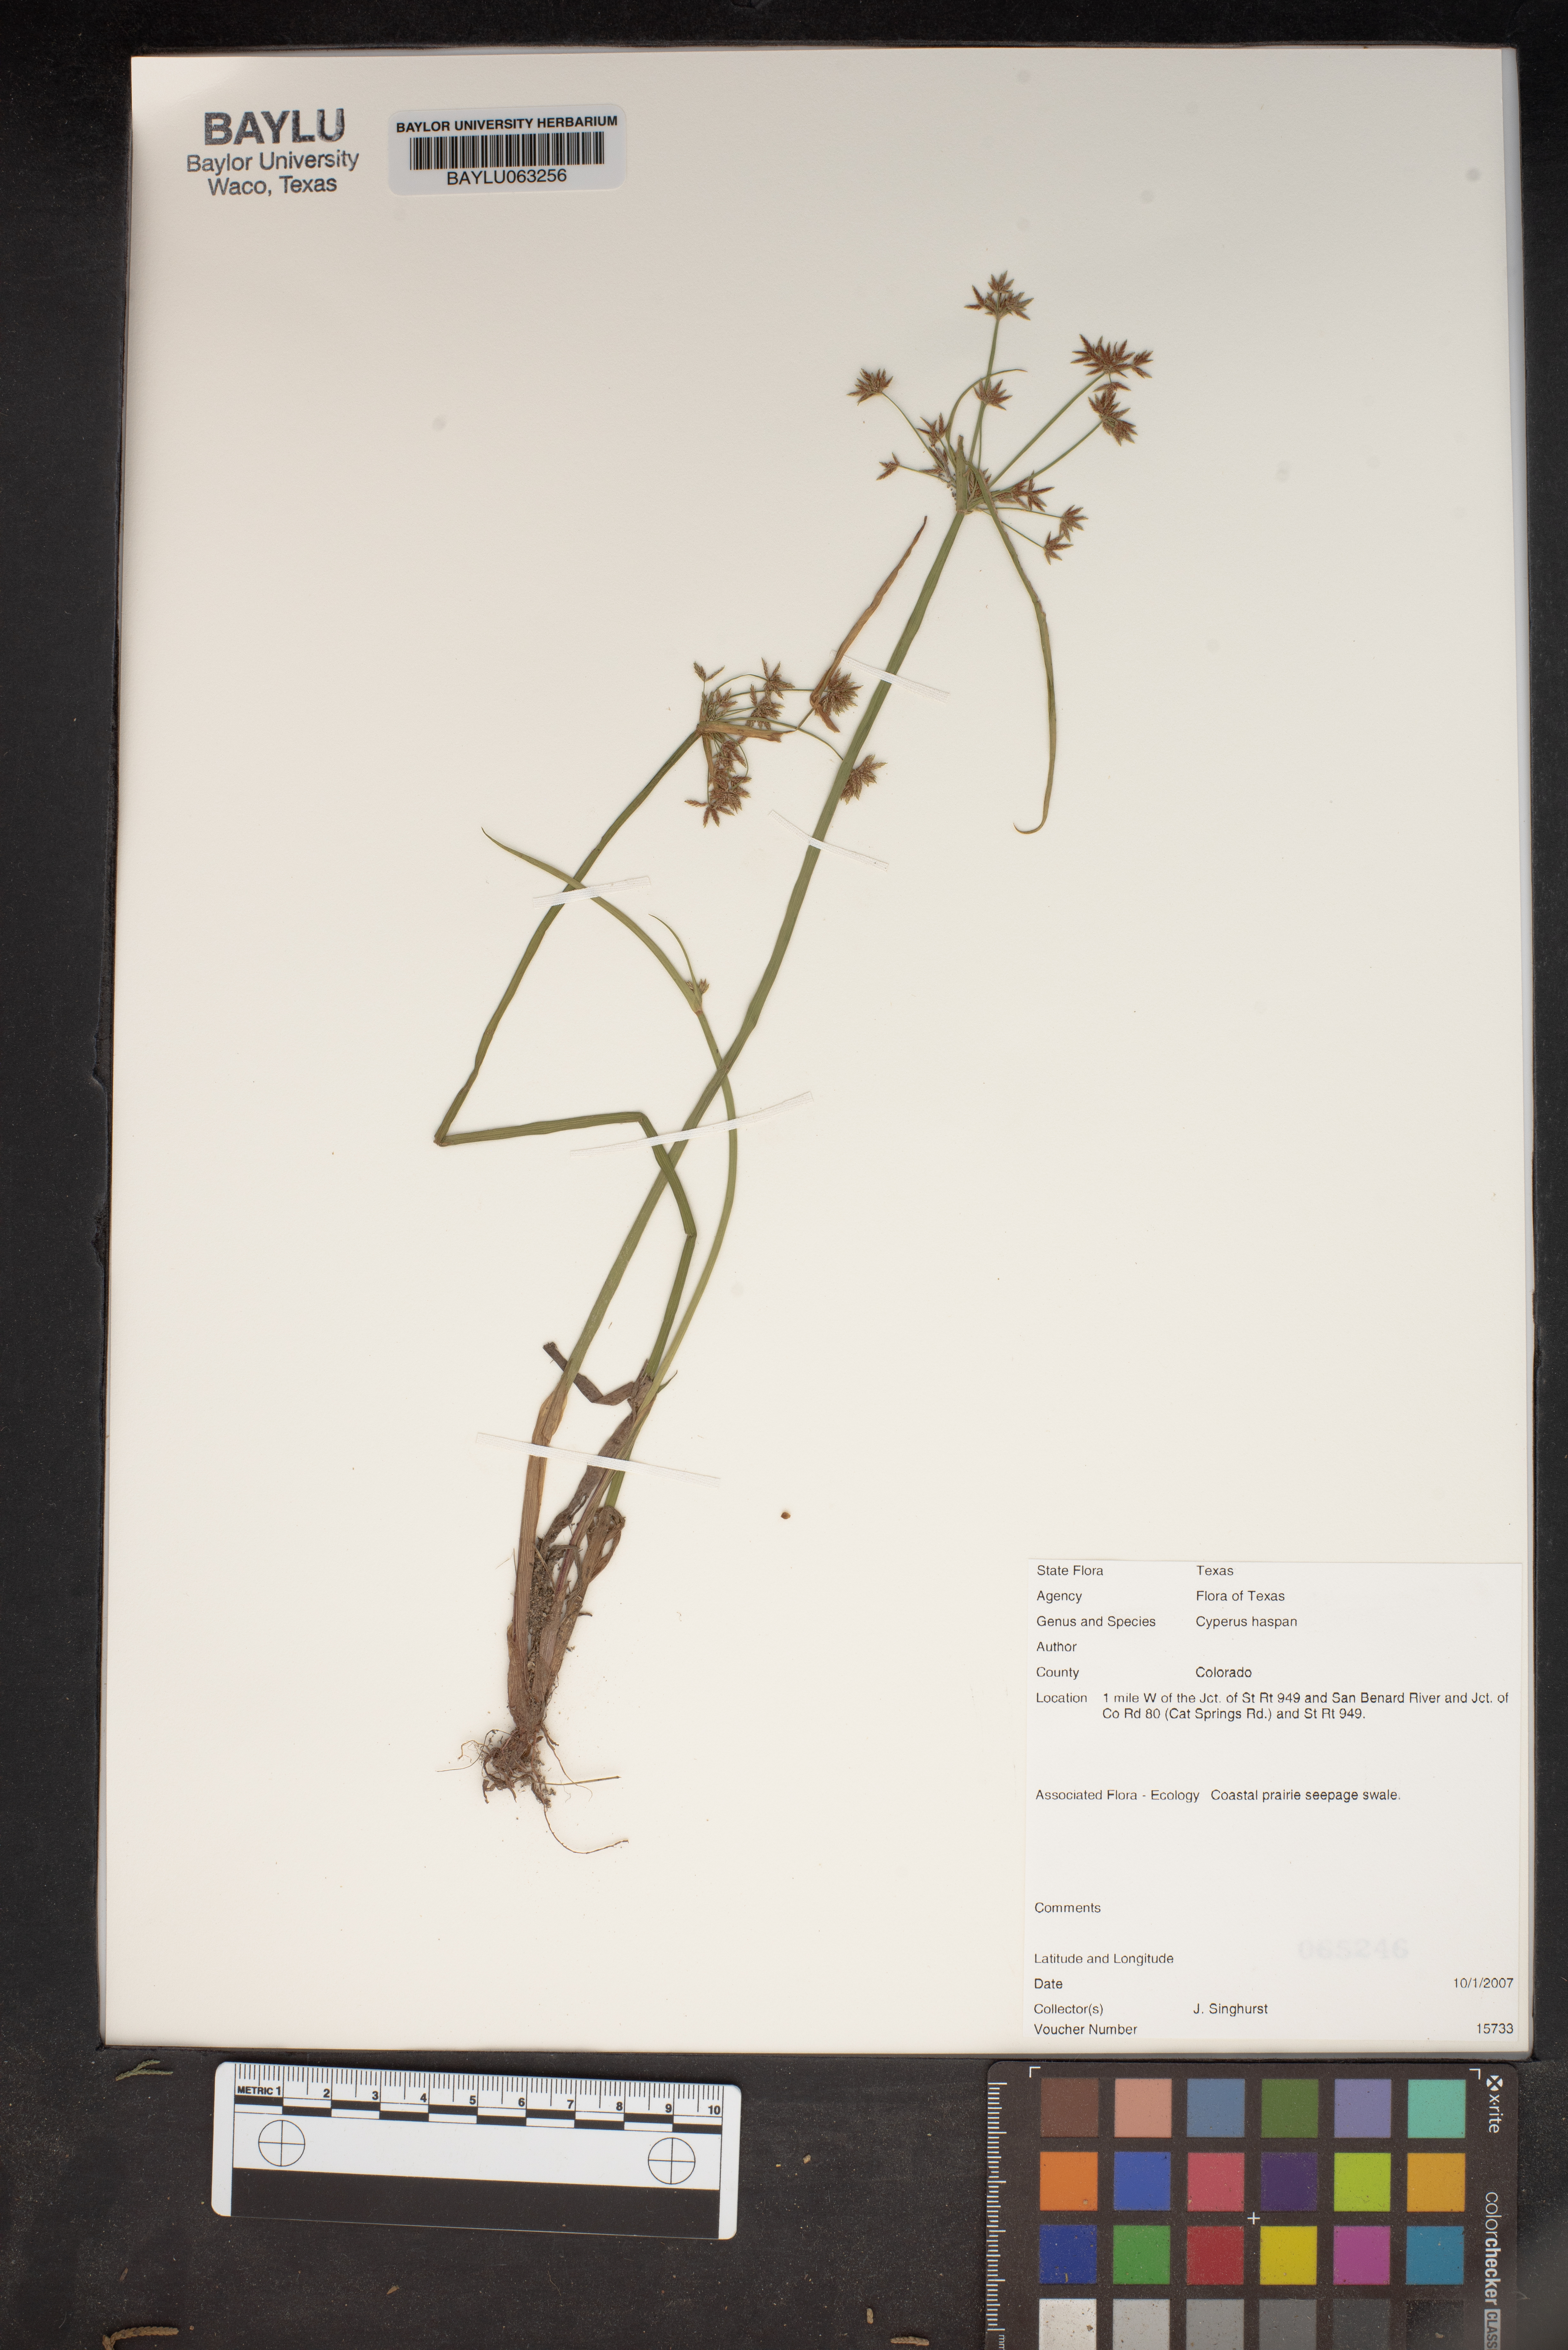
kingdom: Plantae
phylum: Tracheophyta
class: Liliopsida
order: Poales
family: Cyperaceae
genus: Cyperus
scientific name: Cyperus haspan
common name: Haspan flatsedge
